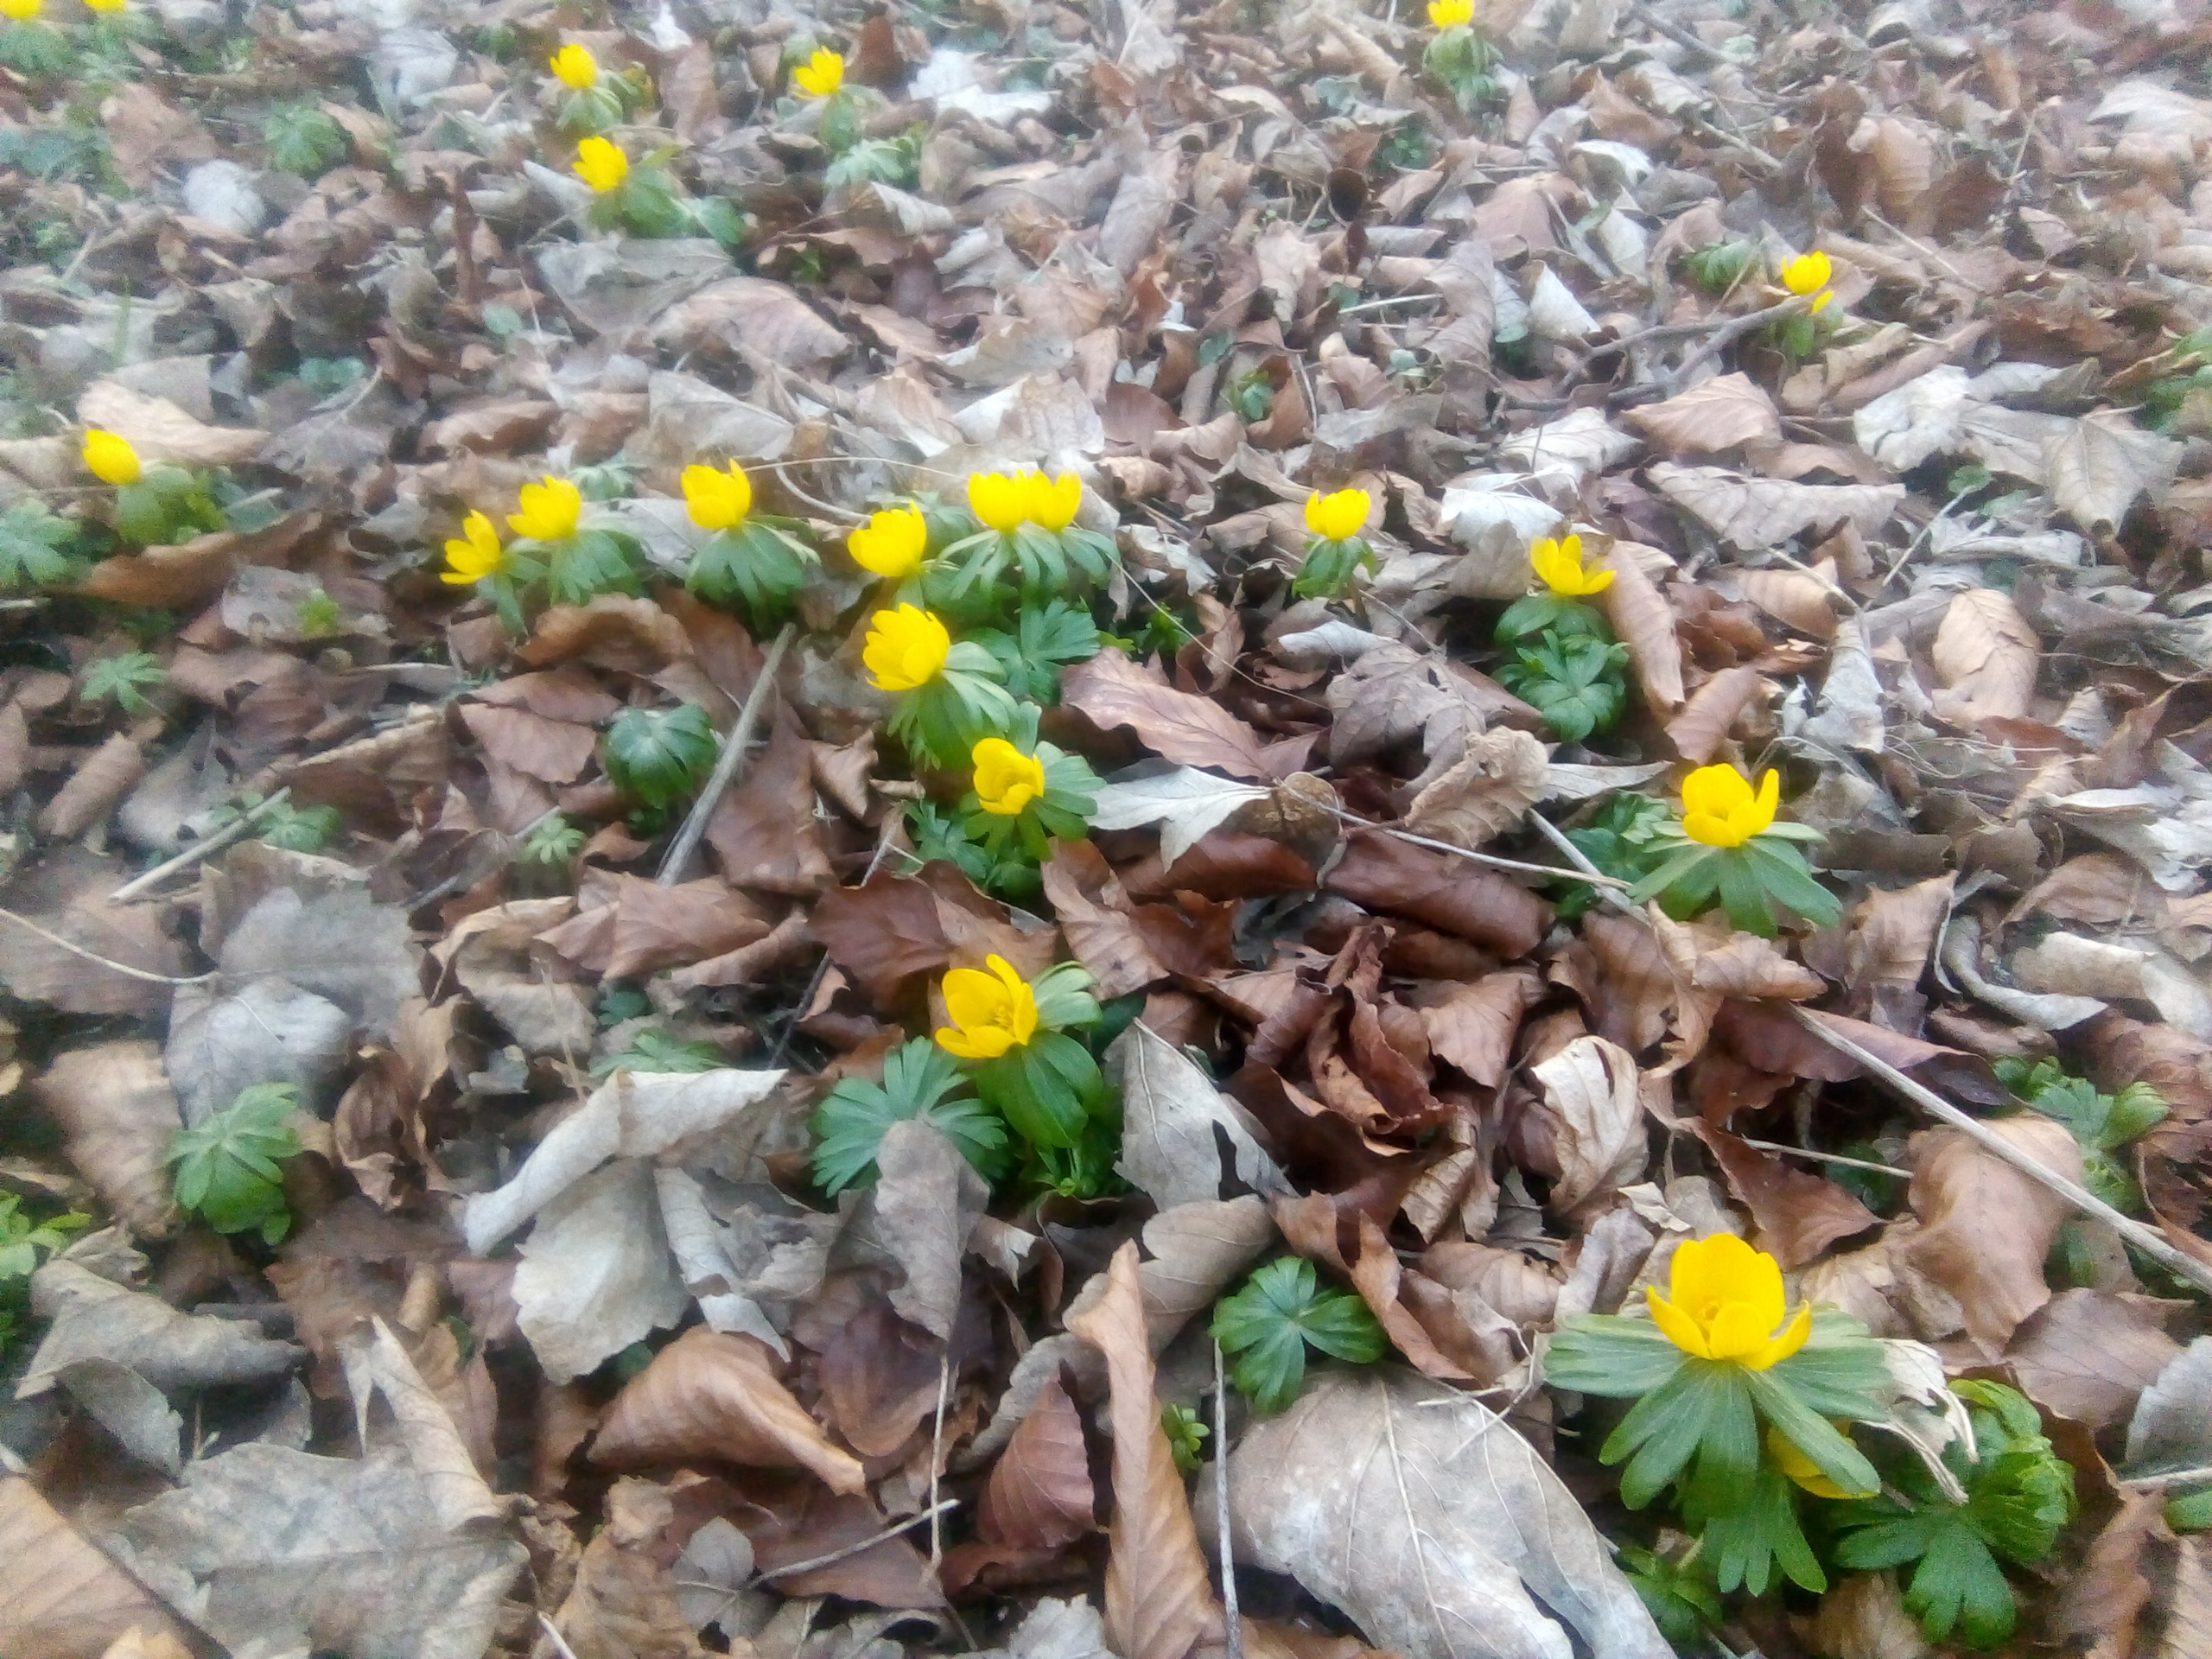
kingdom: Plantae
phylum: Tracheophyta
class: Magnoliopsida
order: Ranunculales
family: Ranunculaceae
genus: Eranthis
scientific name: Eranthis hyemalis
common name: Erantis
